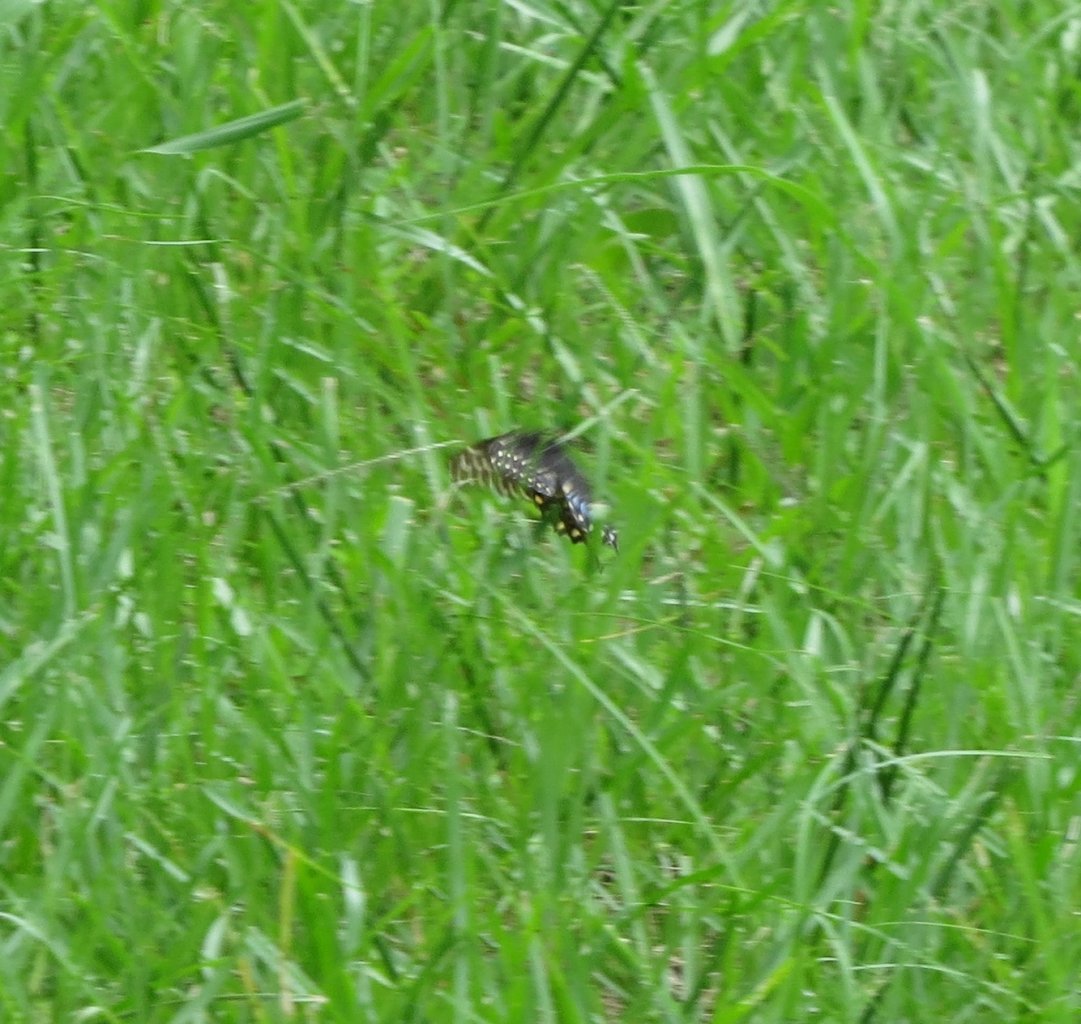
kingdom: Animalia
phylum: Arthropoda
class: Insecta
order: Lepidoptera
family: Papilionidae
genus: Papilio
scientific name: Papilio polyxenes
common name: Black Swallowtail
